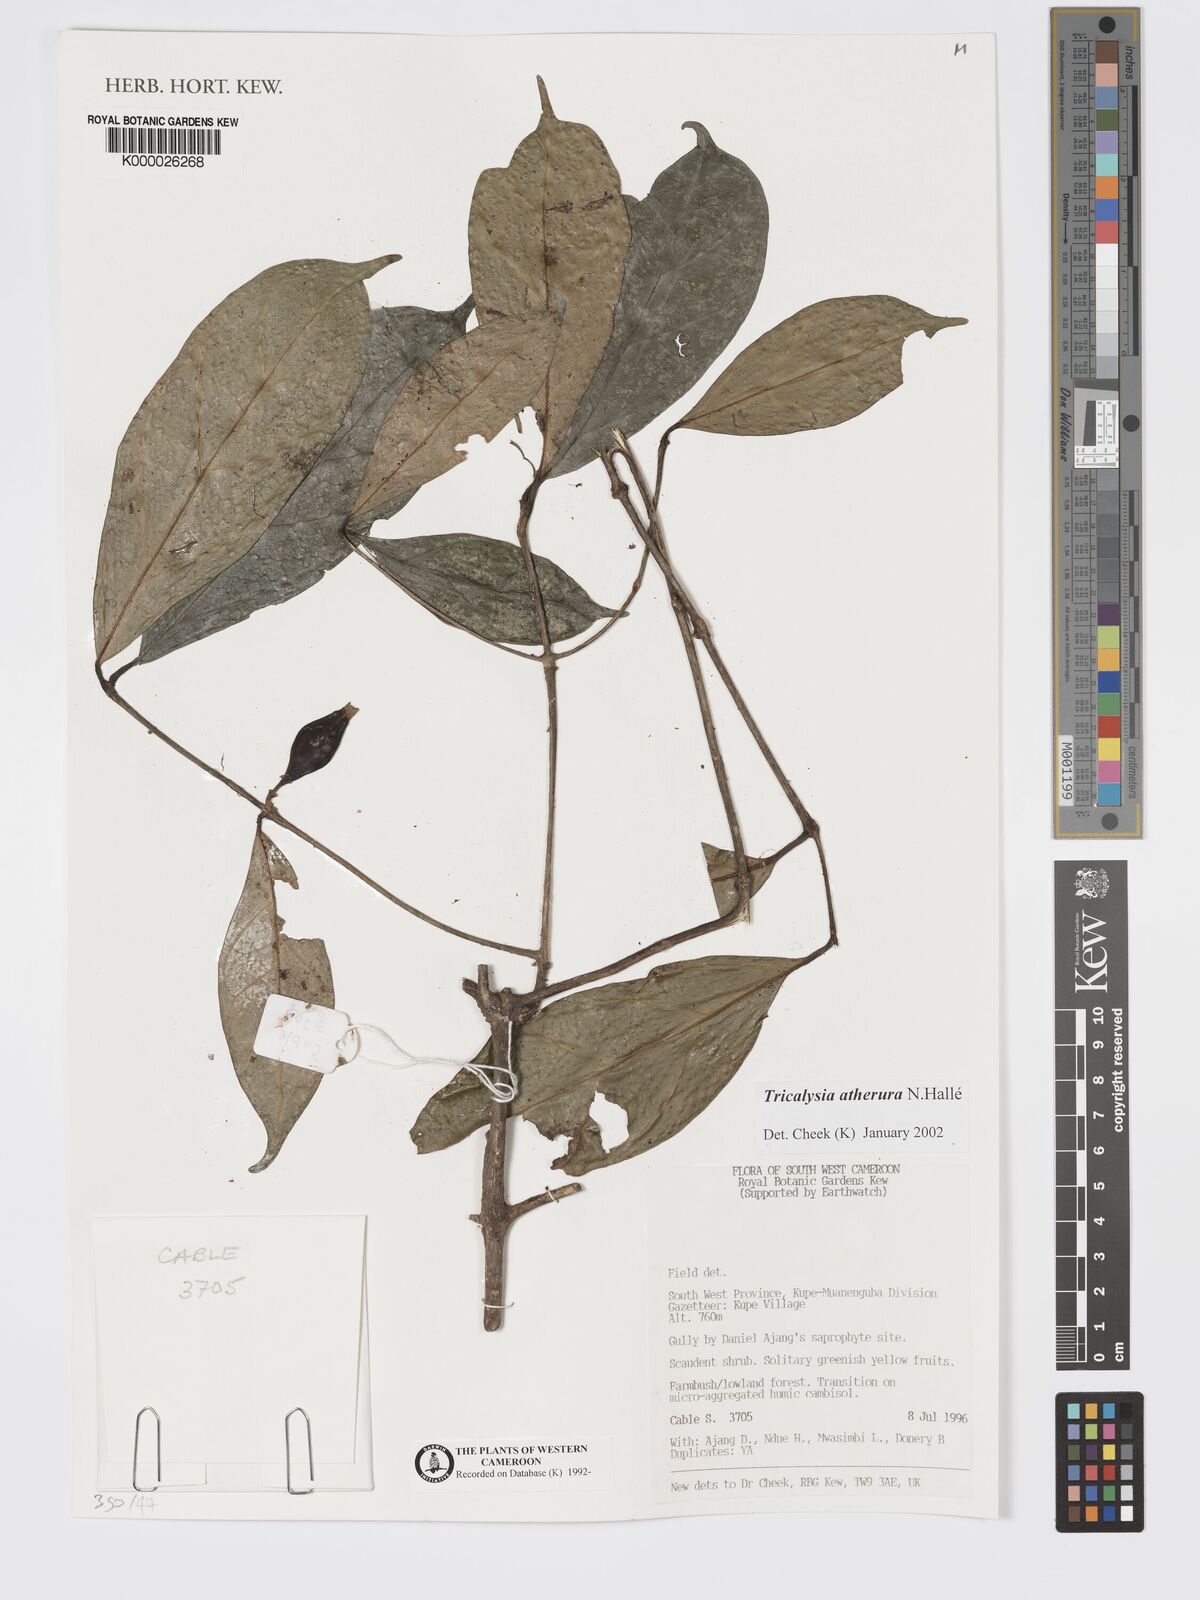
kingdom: Plantae
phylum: Tracheophyta
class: Magnoliopsida
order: Gentianales
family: Rubiaceae
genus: Tricalysia
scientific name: Tricalysia
